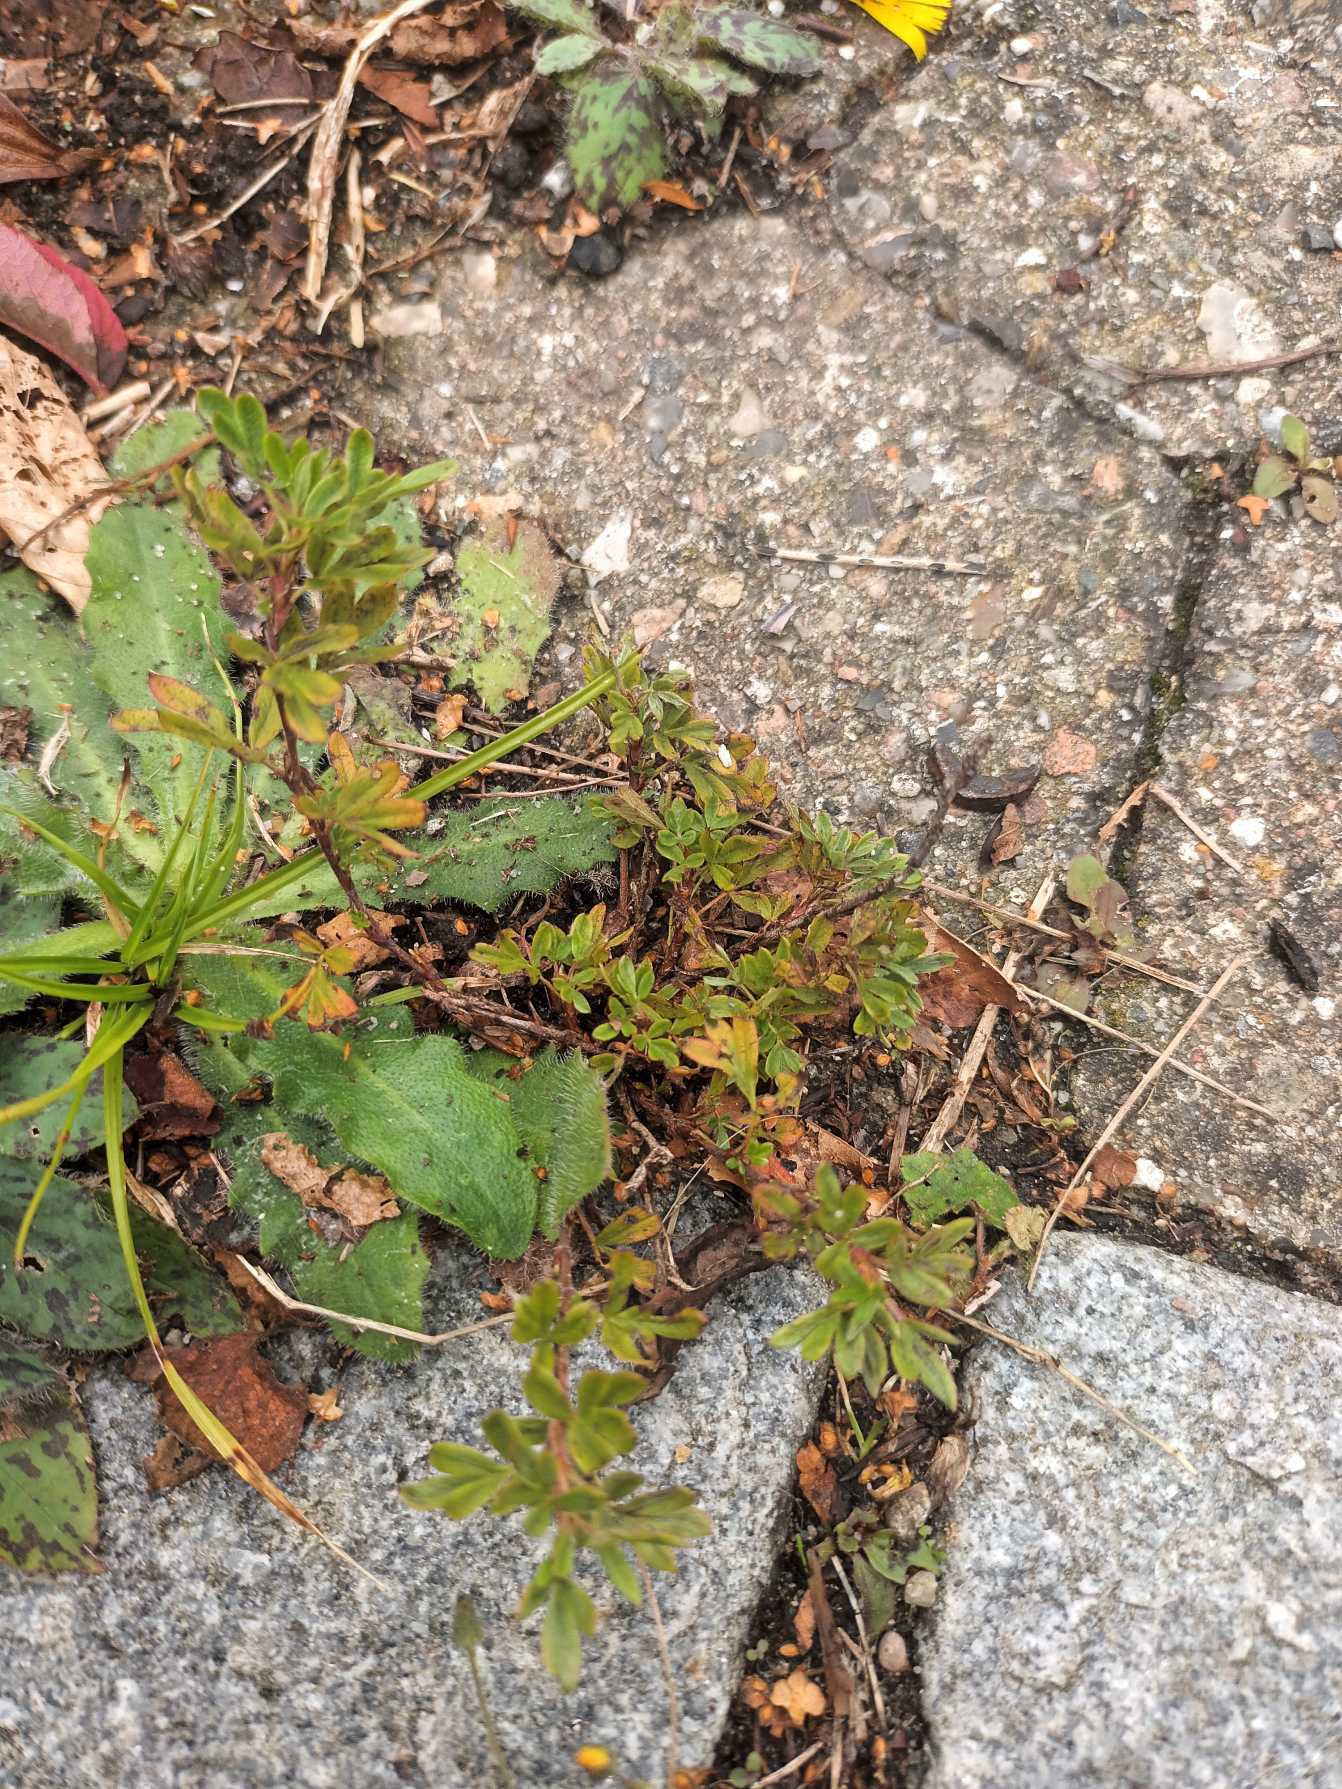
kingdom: Plantae
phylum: Tracheophyta
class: Magnoliopsida
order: Rosales
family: Rosaceae
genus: Dasiphora
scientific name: Dasiphora fruticosa
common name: Buskpotentil
